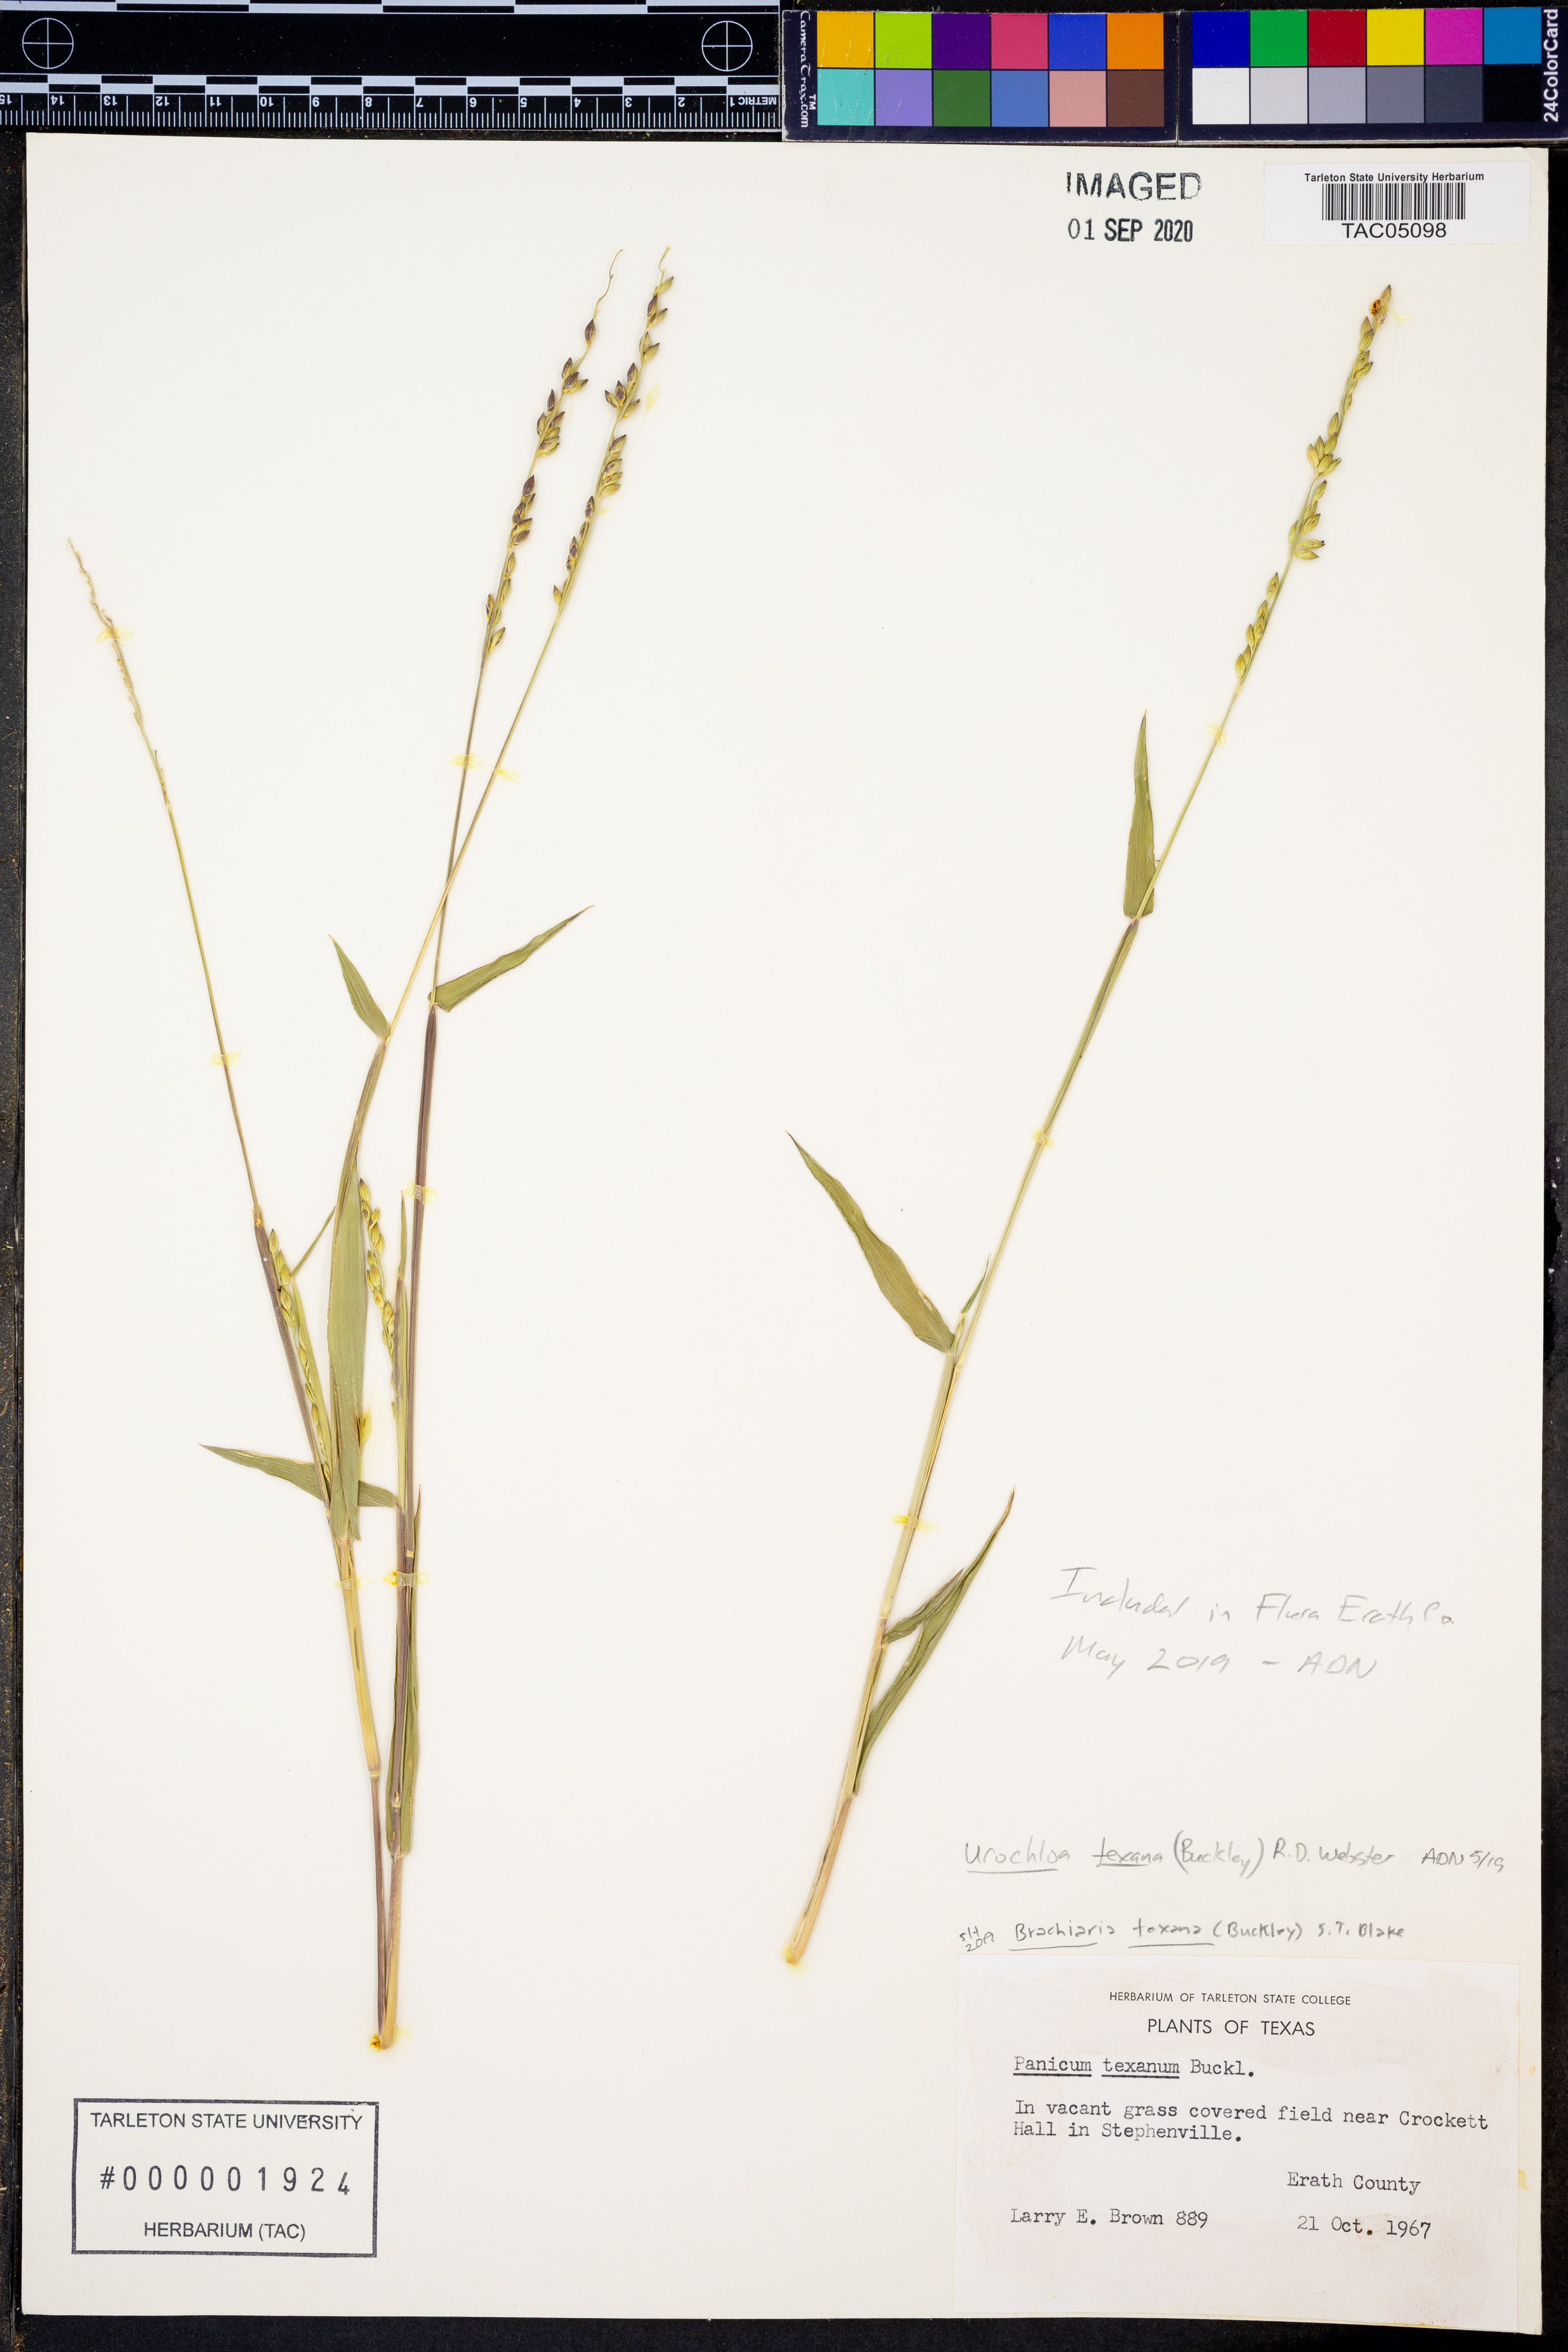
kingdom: Plantae
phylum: Tracheophyta
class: Liliopsida
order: Poales
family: Poaceae
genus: Urochloa
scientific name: Urochloa texana
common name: Texas millet
